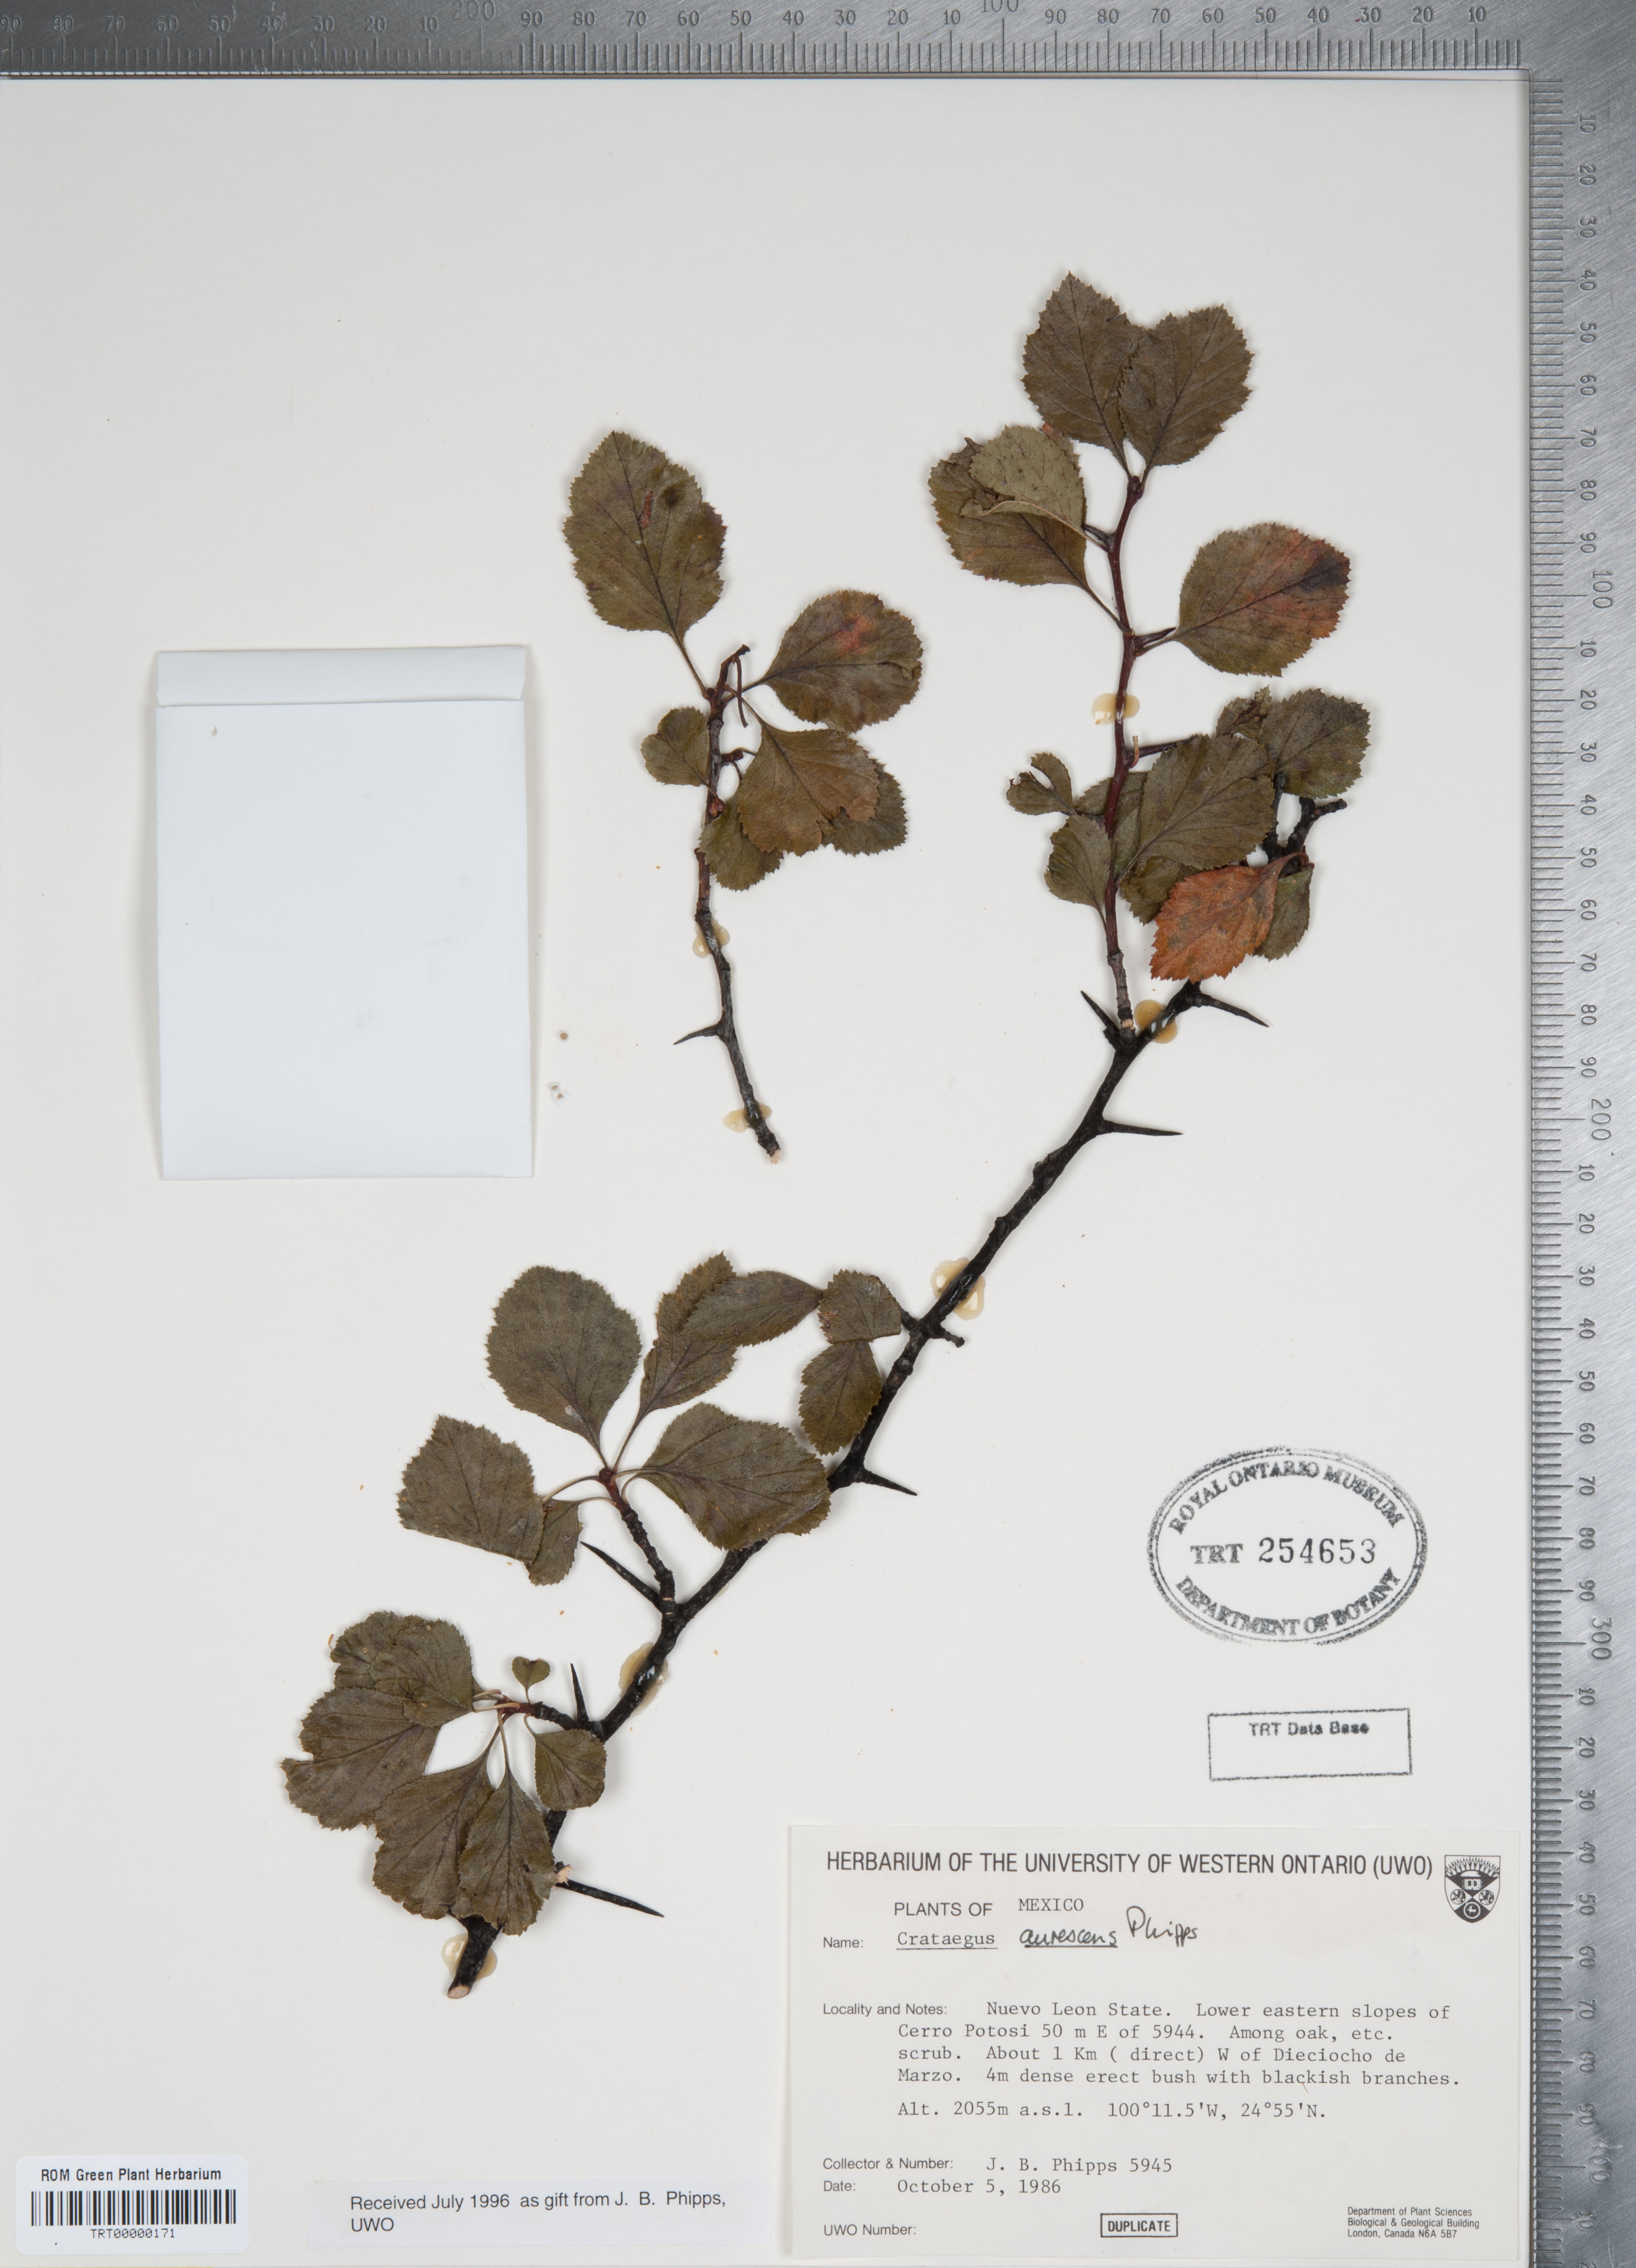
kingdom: Plantae
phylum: Tracheophyta
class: Magnoliopsida
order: Rosales
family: Rosaceae
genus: Crataegus
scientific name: Crataegus aurescens
